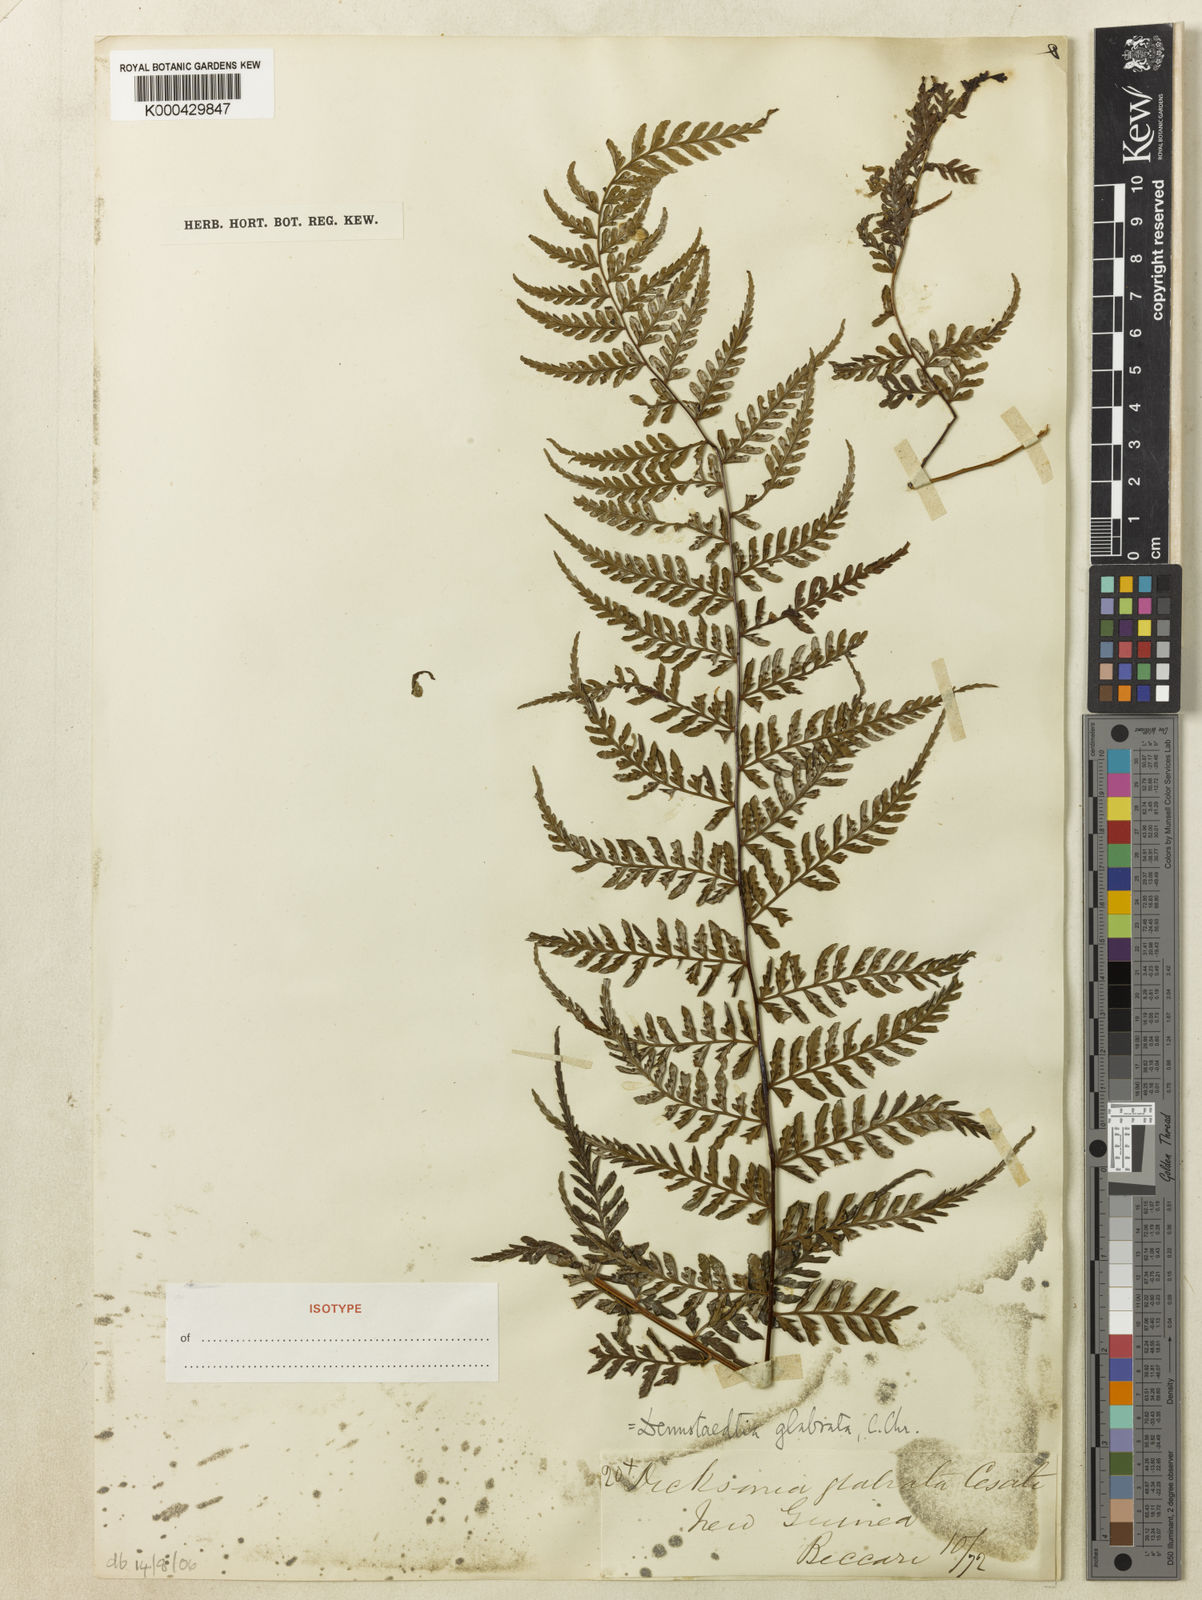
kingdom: Plantae
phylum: Tracheophyta
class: Polypodiopsida
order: Polypodiales
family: Dennstaedtiaceae
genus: Dennstaedtia
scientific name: Dennstaedtia glabrata
